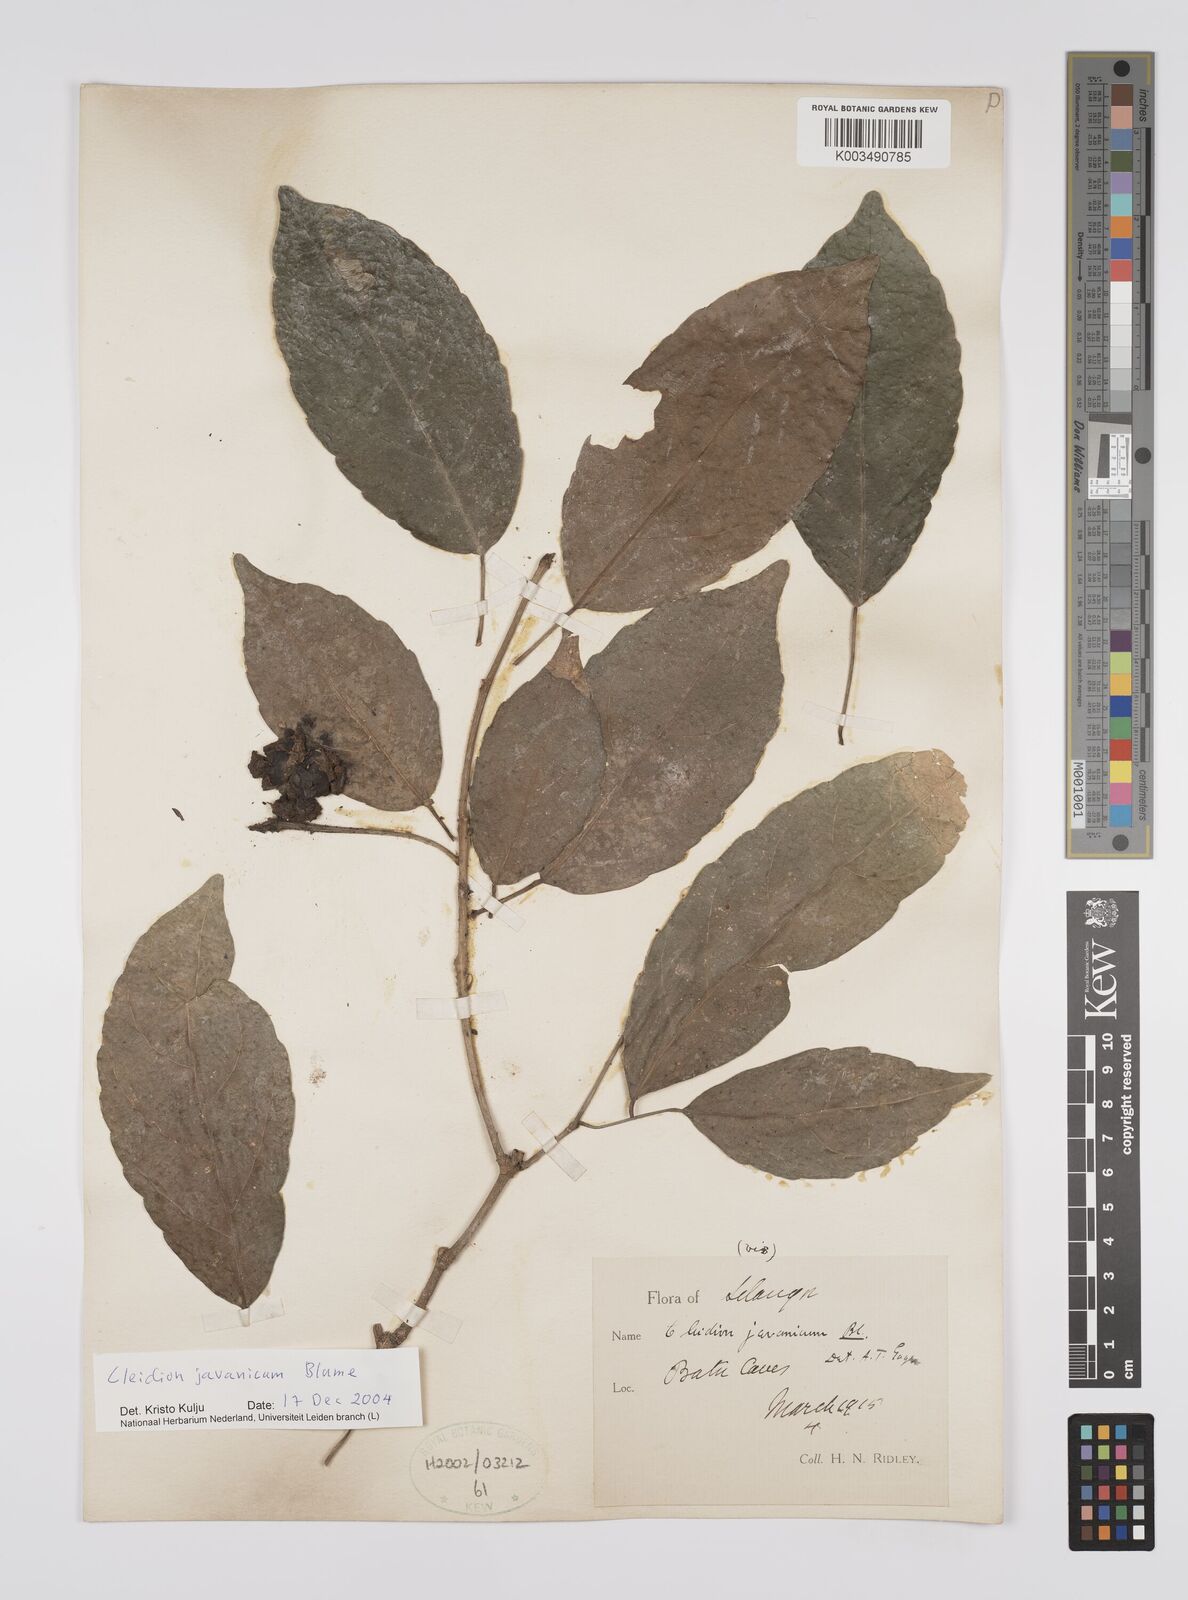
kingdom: Plantae
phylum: Tracheophyta
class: Magnoliopsida
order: Malpighiales
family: Euphorbiaceae
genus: Cleidion
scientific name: Cleidion javanicum
